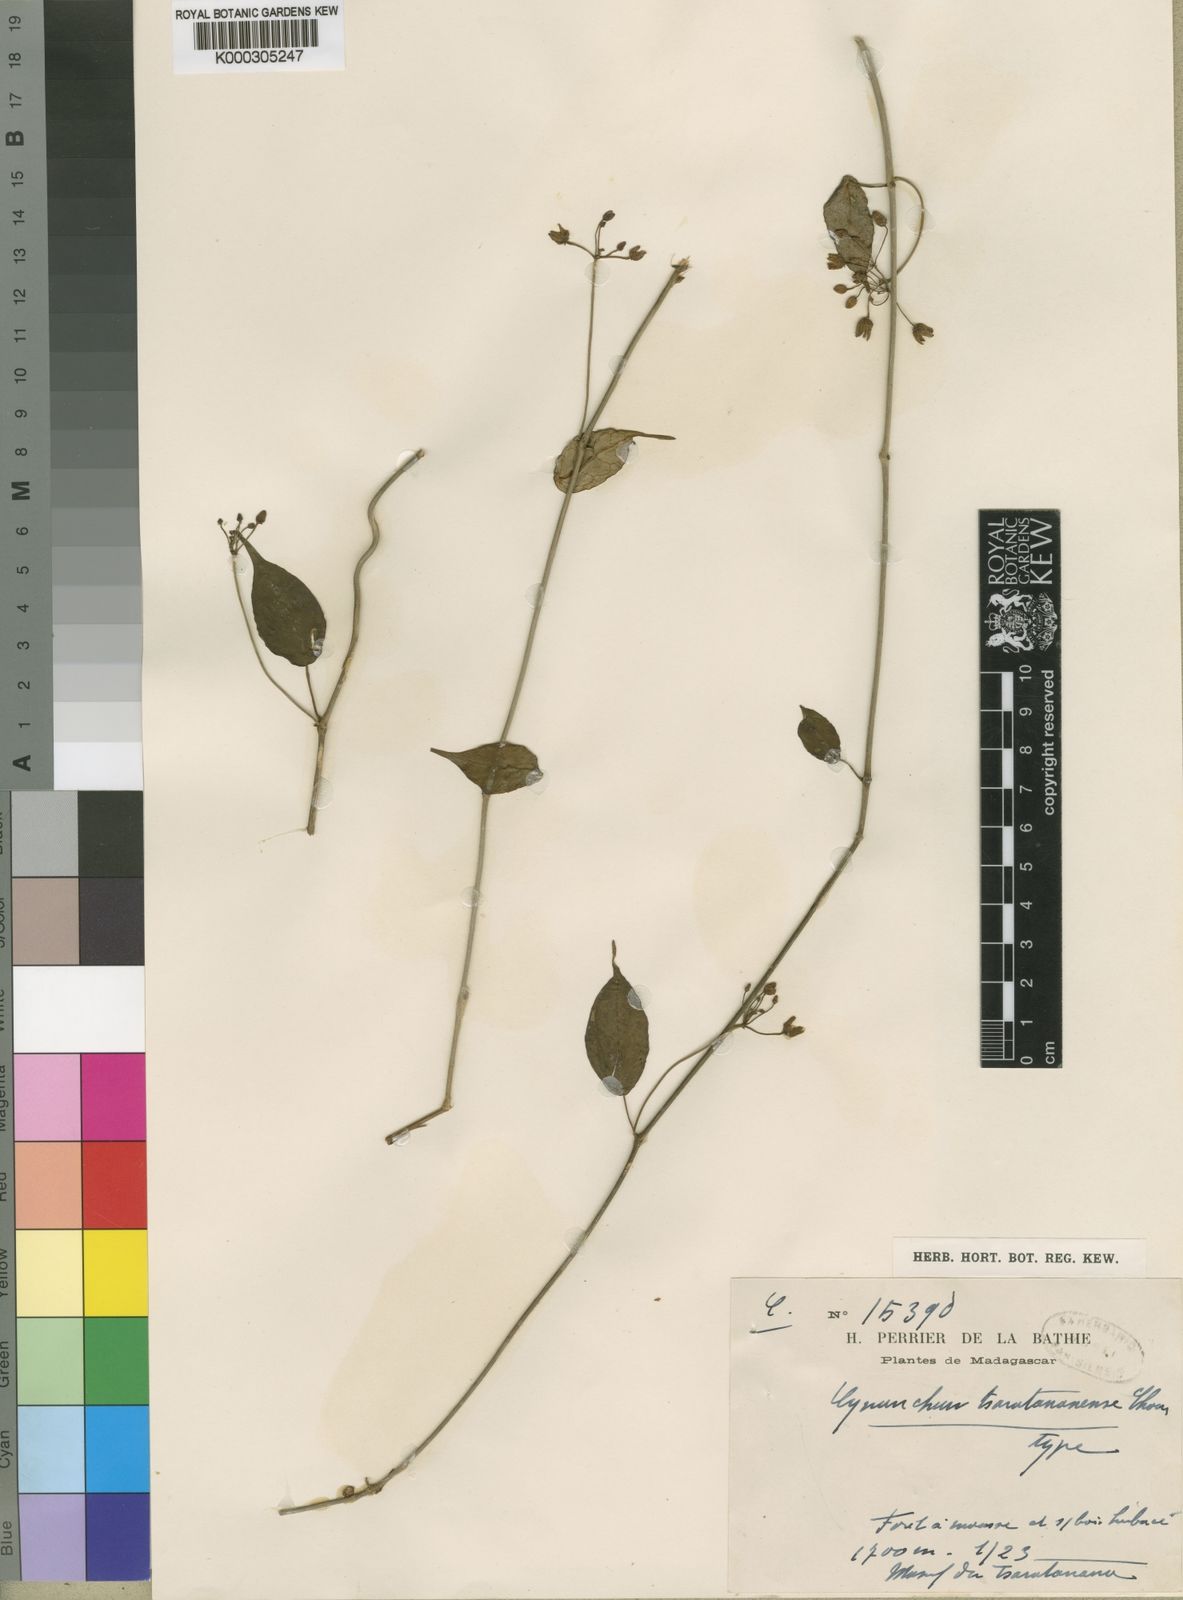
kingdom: Plantae
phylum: Tracheophyta
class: Magnoliopsida
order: Gentianales
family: Apocynaceae
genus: Cynanchum
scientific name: Cynanchum tsaratananense
